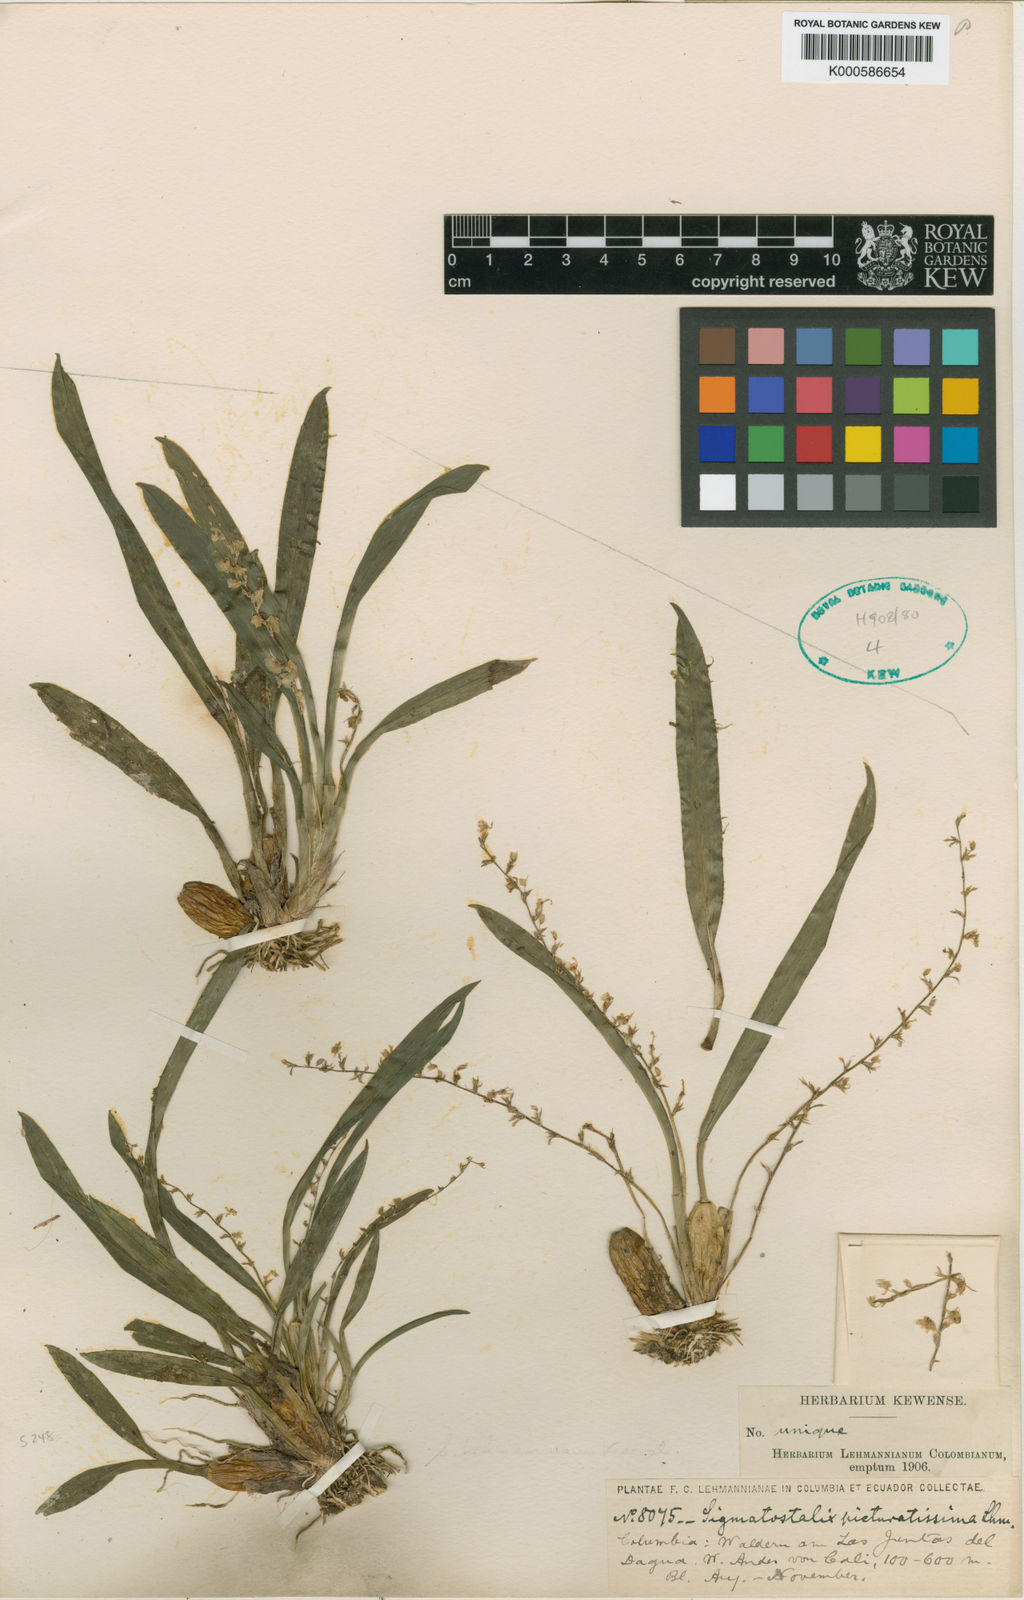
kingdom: Plantae
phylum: Tracheophyta
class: Liliopsida
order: Asparagales
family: Orchidaceae
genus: Oncidium
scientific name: Oncidium picturatissimum
